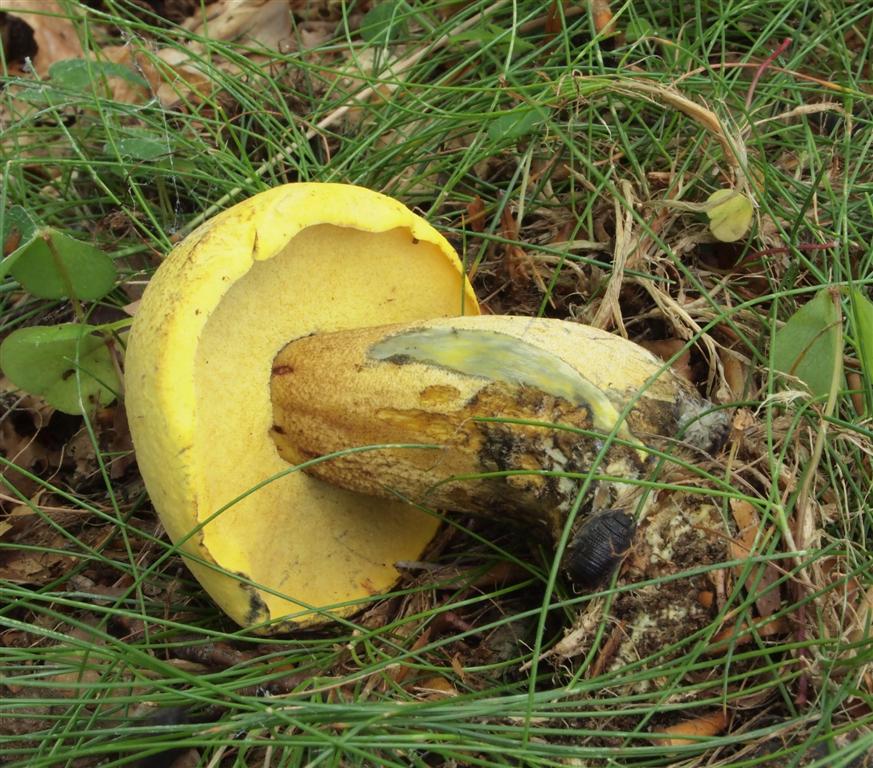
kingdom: Fungi
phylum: Basidiomycota
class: Agaricomycetes
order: Boletales
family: Boletaceae
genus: Neoboletus
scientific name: Neoboletus praestigiator
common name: gul indigorørhat
